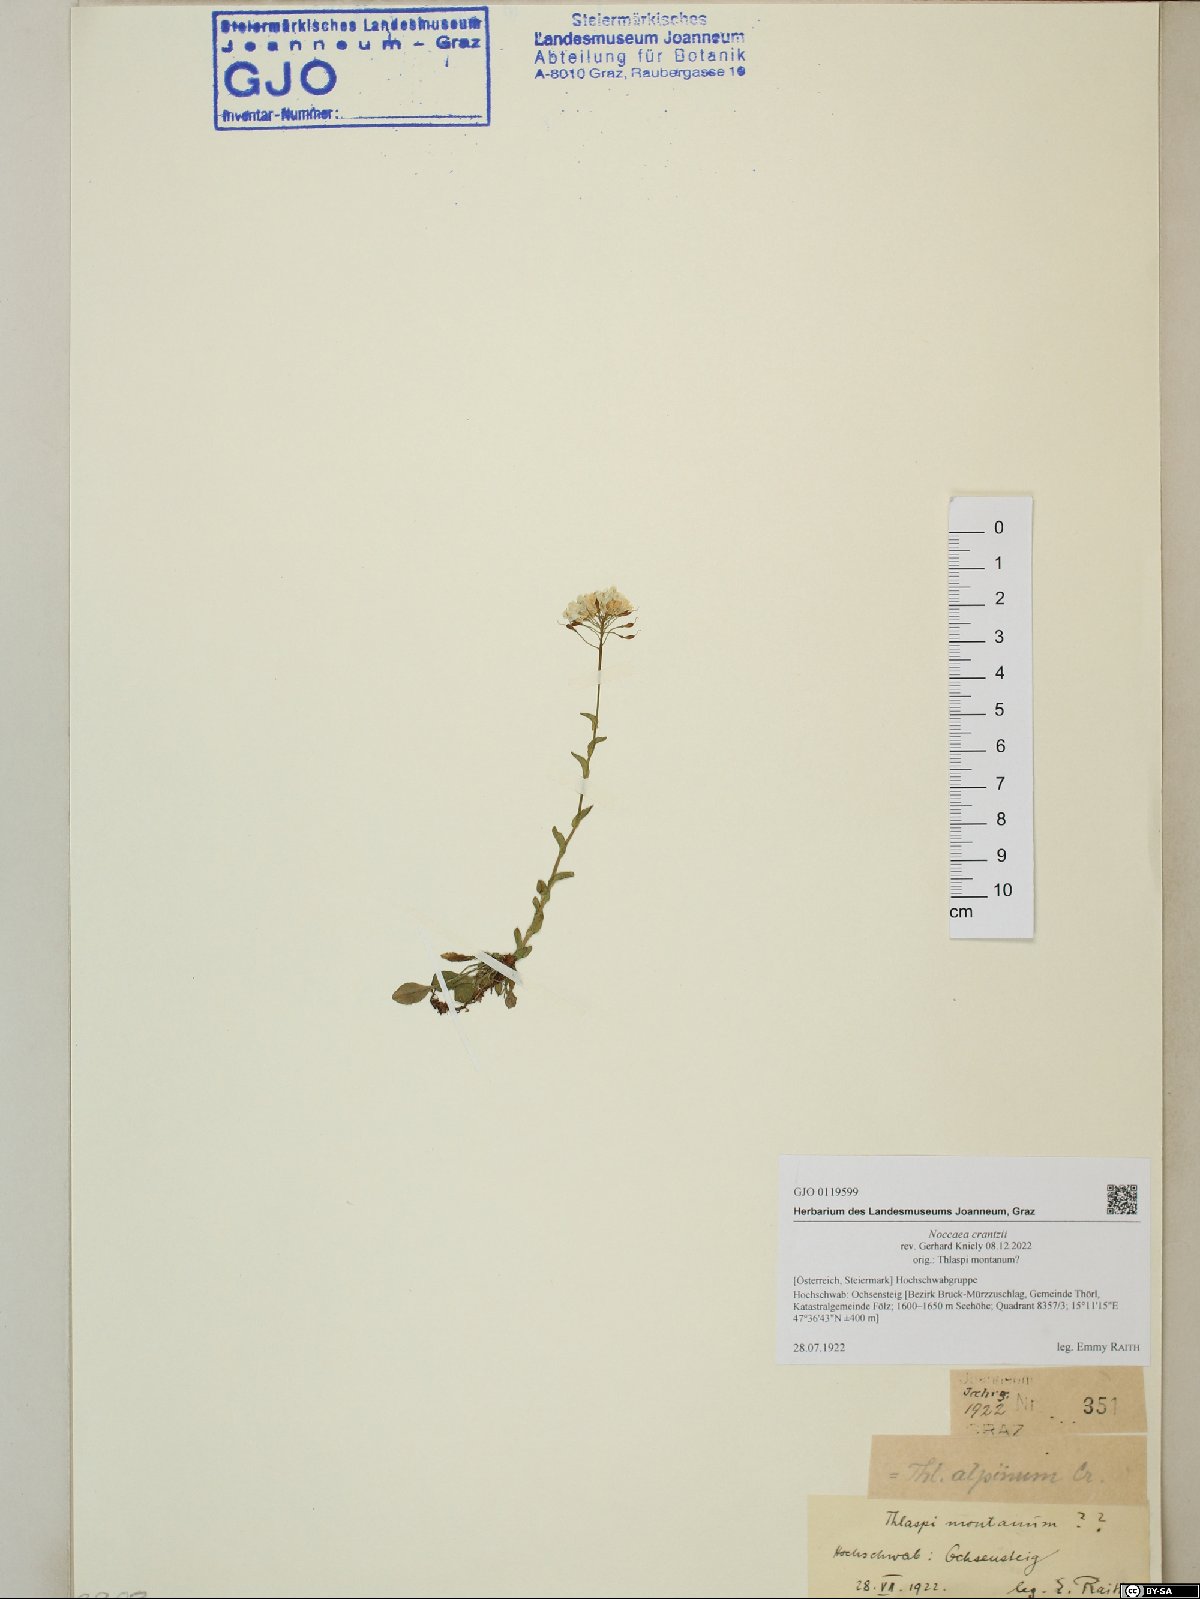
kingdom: Plantae
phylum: Tracheophyta
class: Magnoliopsida
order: Brassicales
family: Brassicaceae
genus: Noccaea
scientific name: Noccaea alpestris
